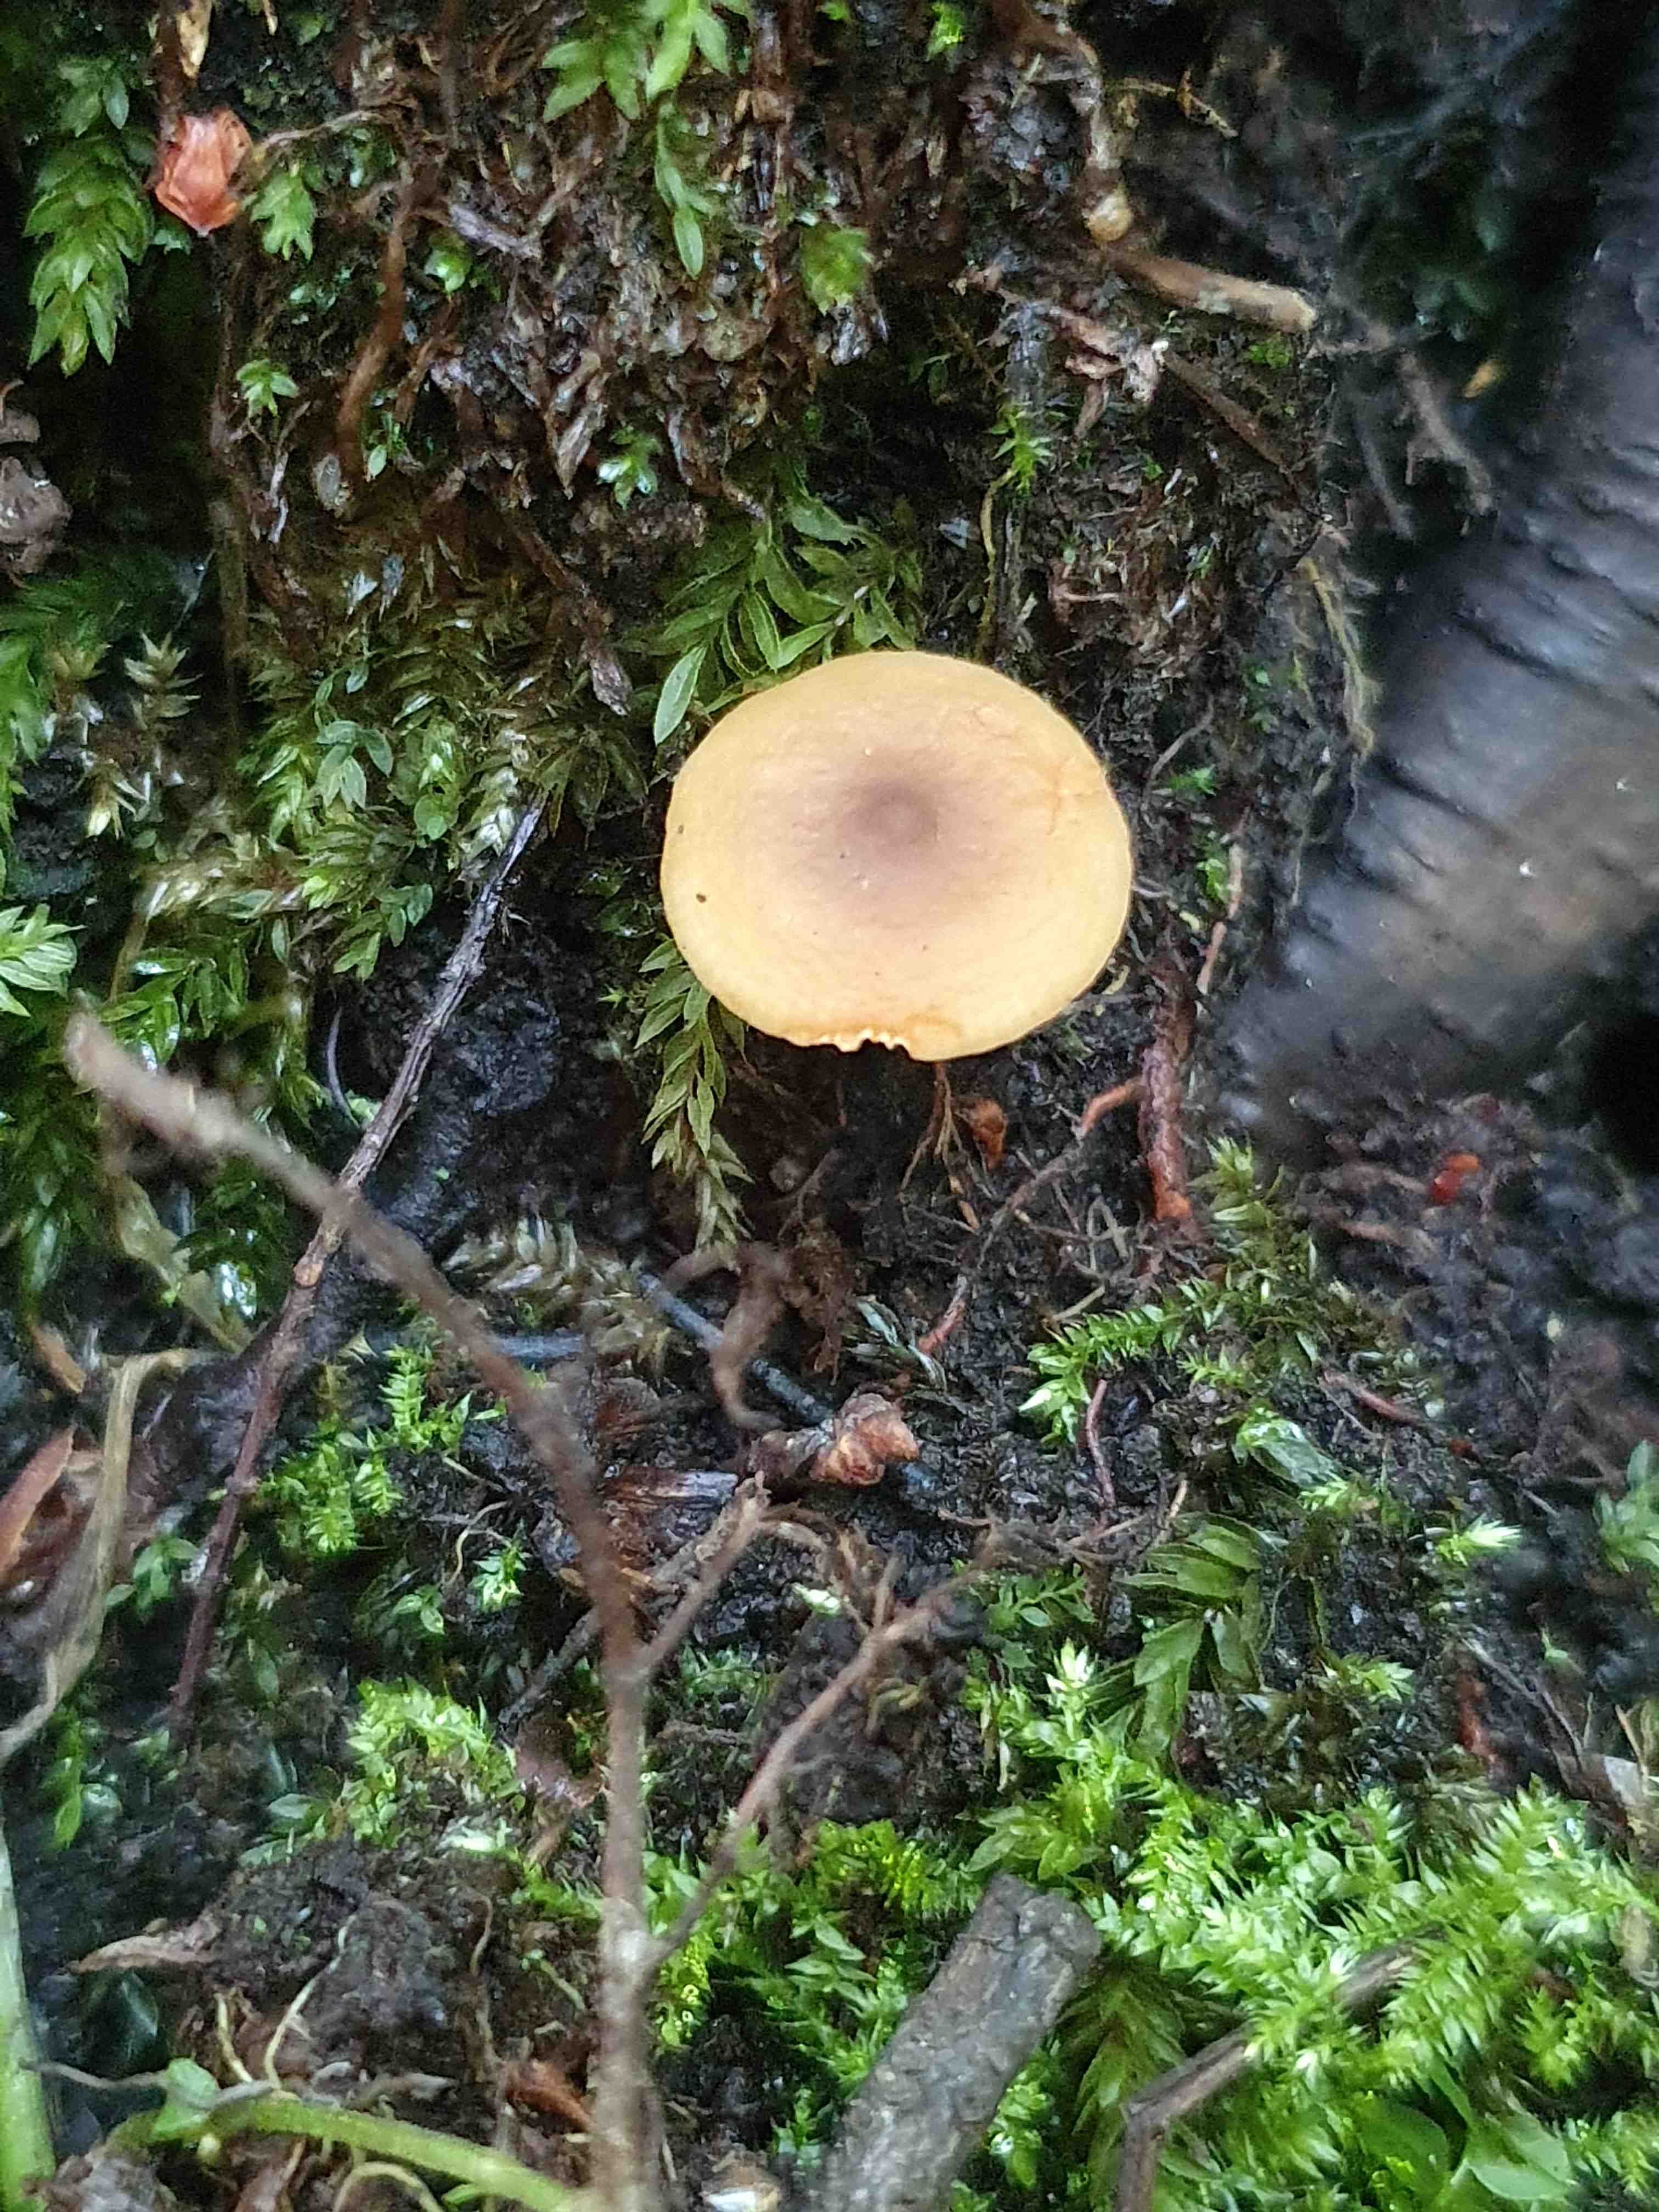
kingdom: Fungi
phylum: Basidiomycota
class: Agaricomycetes
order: Russulales
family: Russulaceae
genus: Lactarius
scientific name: Lactarius obscuratus
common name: elle-mælkehat
